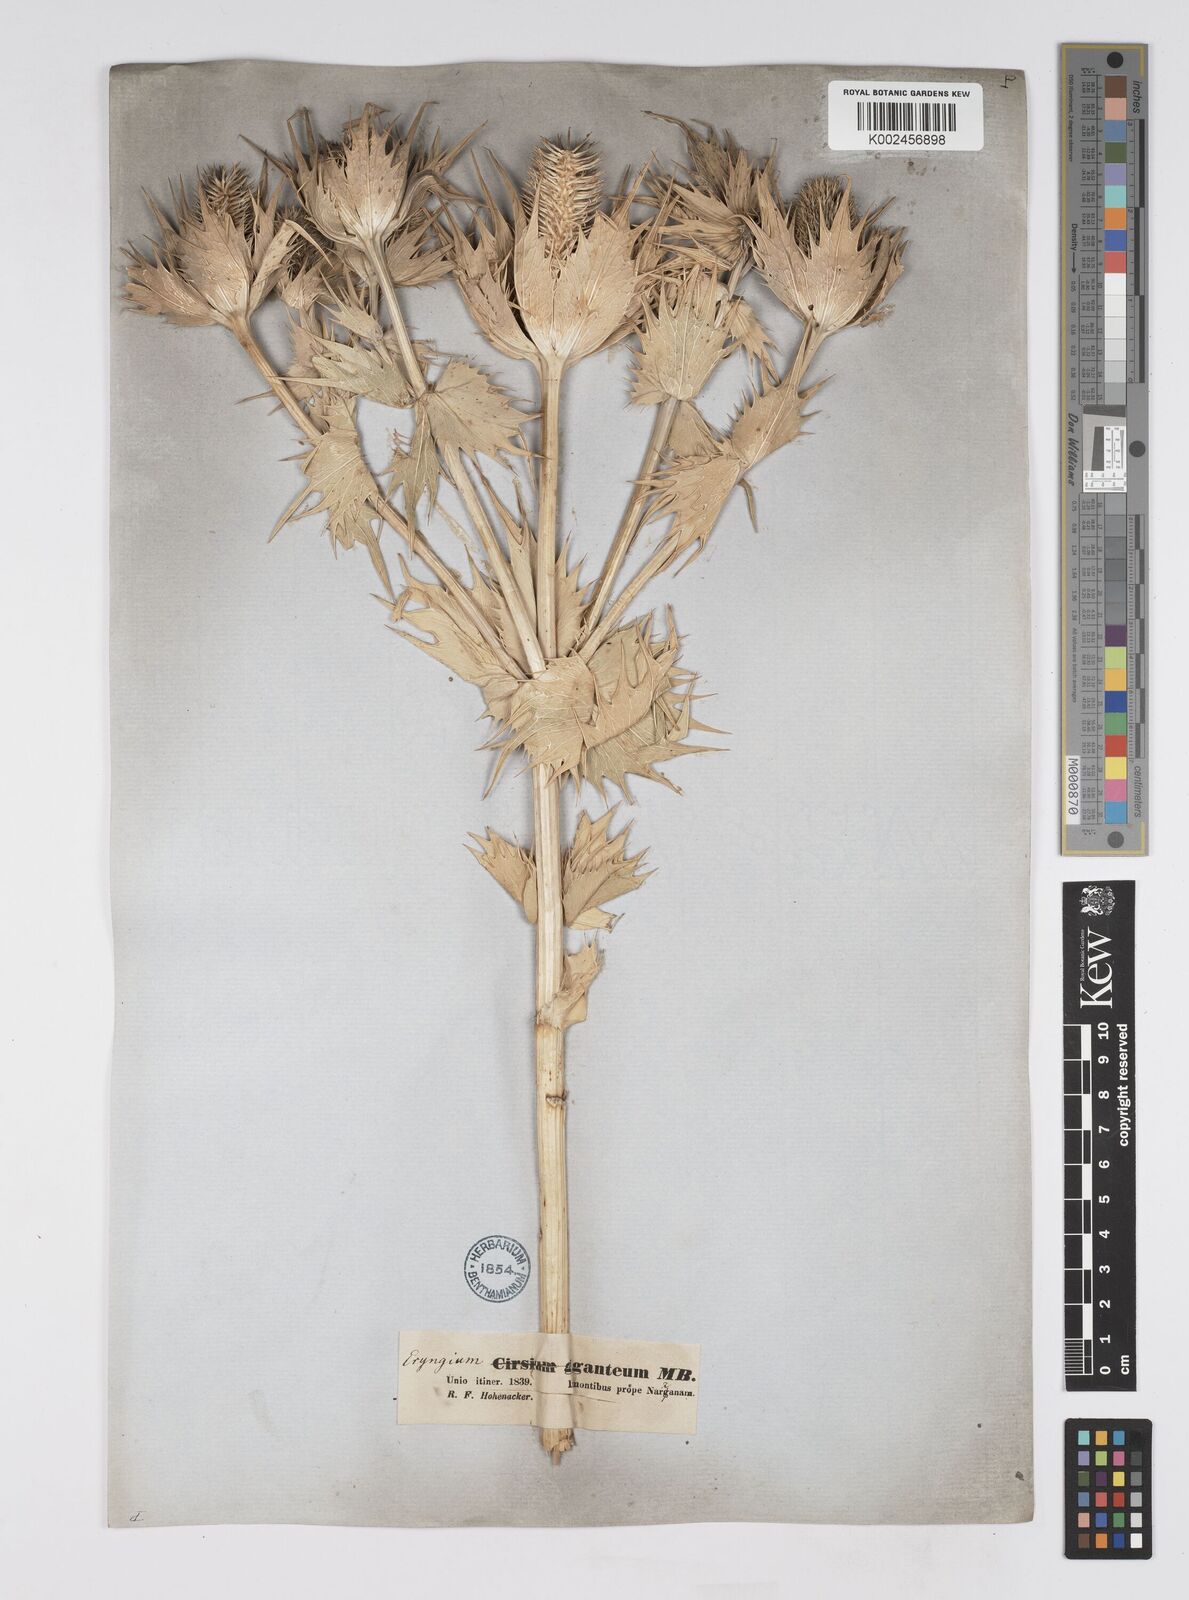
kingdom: Plantae
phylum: Tracheophyta
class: Magnoliopsida
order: Apiales
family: Apiaceae
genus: Eryngium
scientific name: Eryngium giganteum
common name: Tall eryngo
